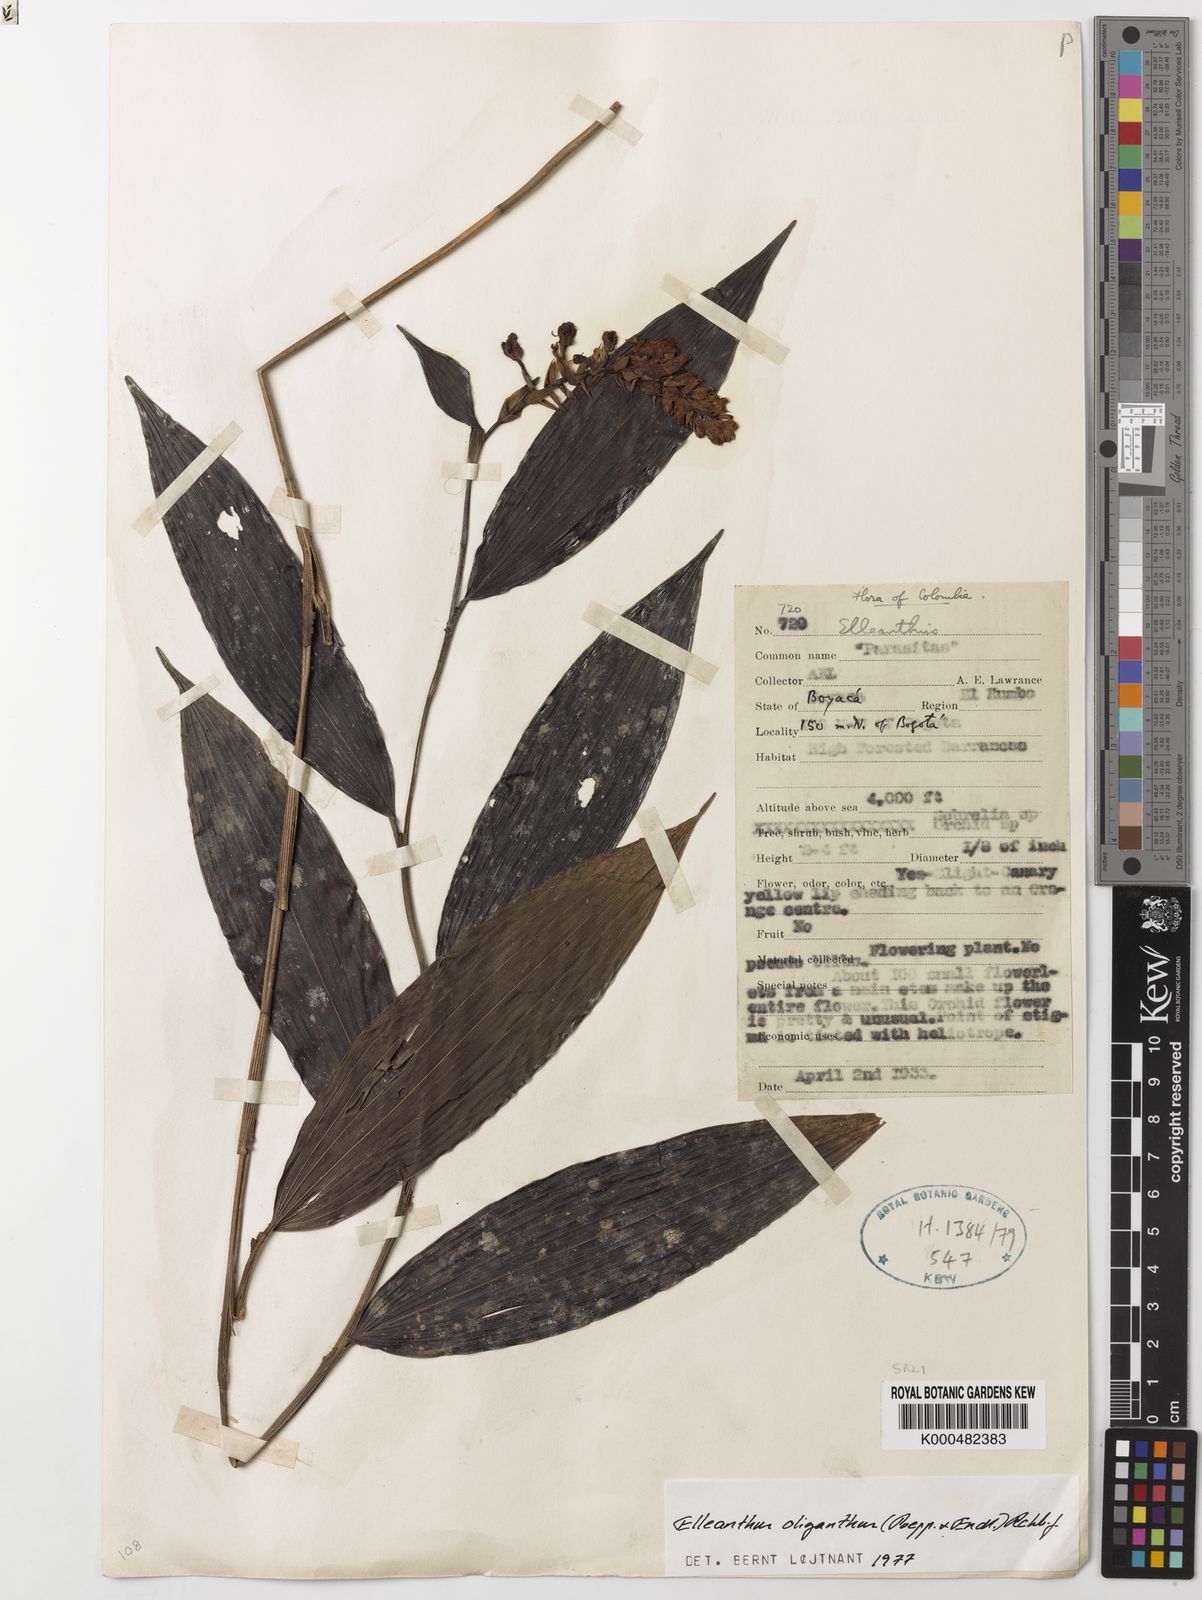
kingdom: Plantae
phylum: Tracheophyta
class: Liliopsida
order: Asparagales
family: Orchidaceae
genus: Elleanthus
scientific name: Elleanthus oliganthus
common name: Sparse blooming elleanthus
